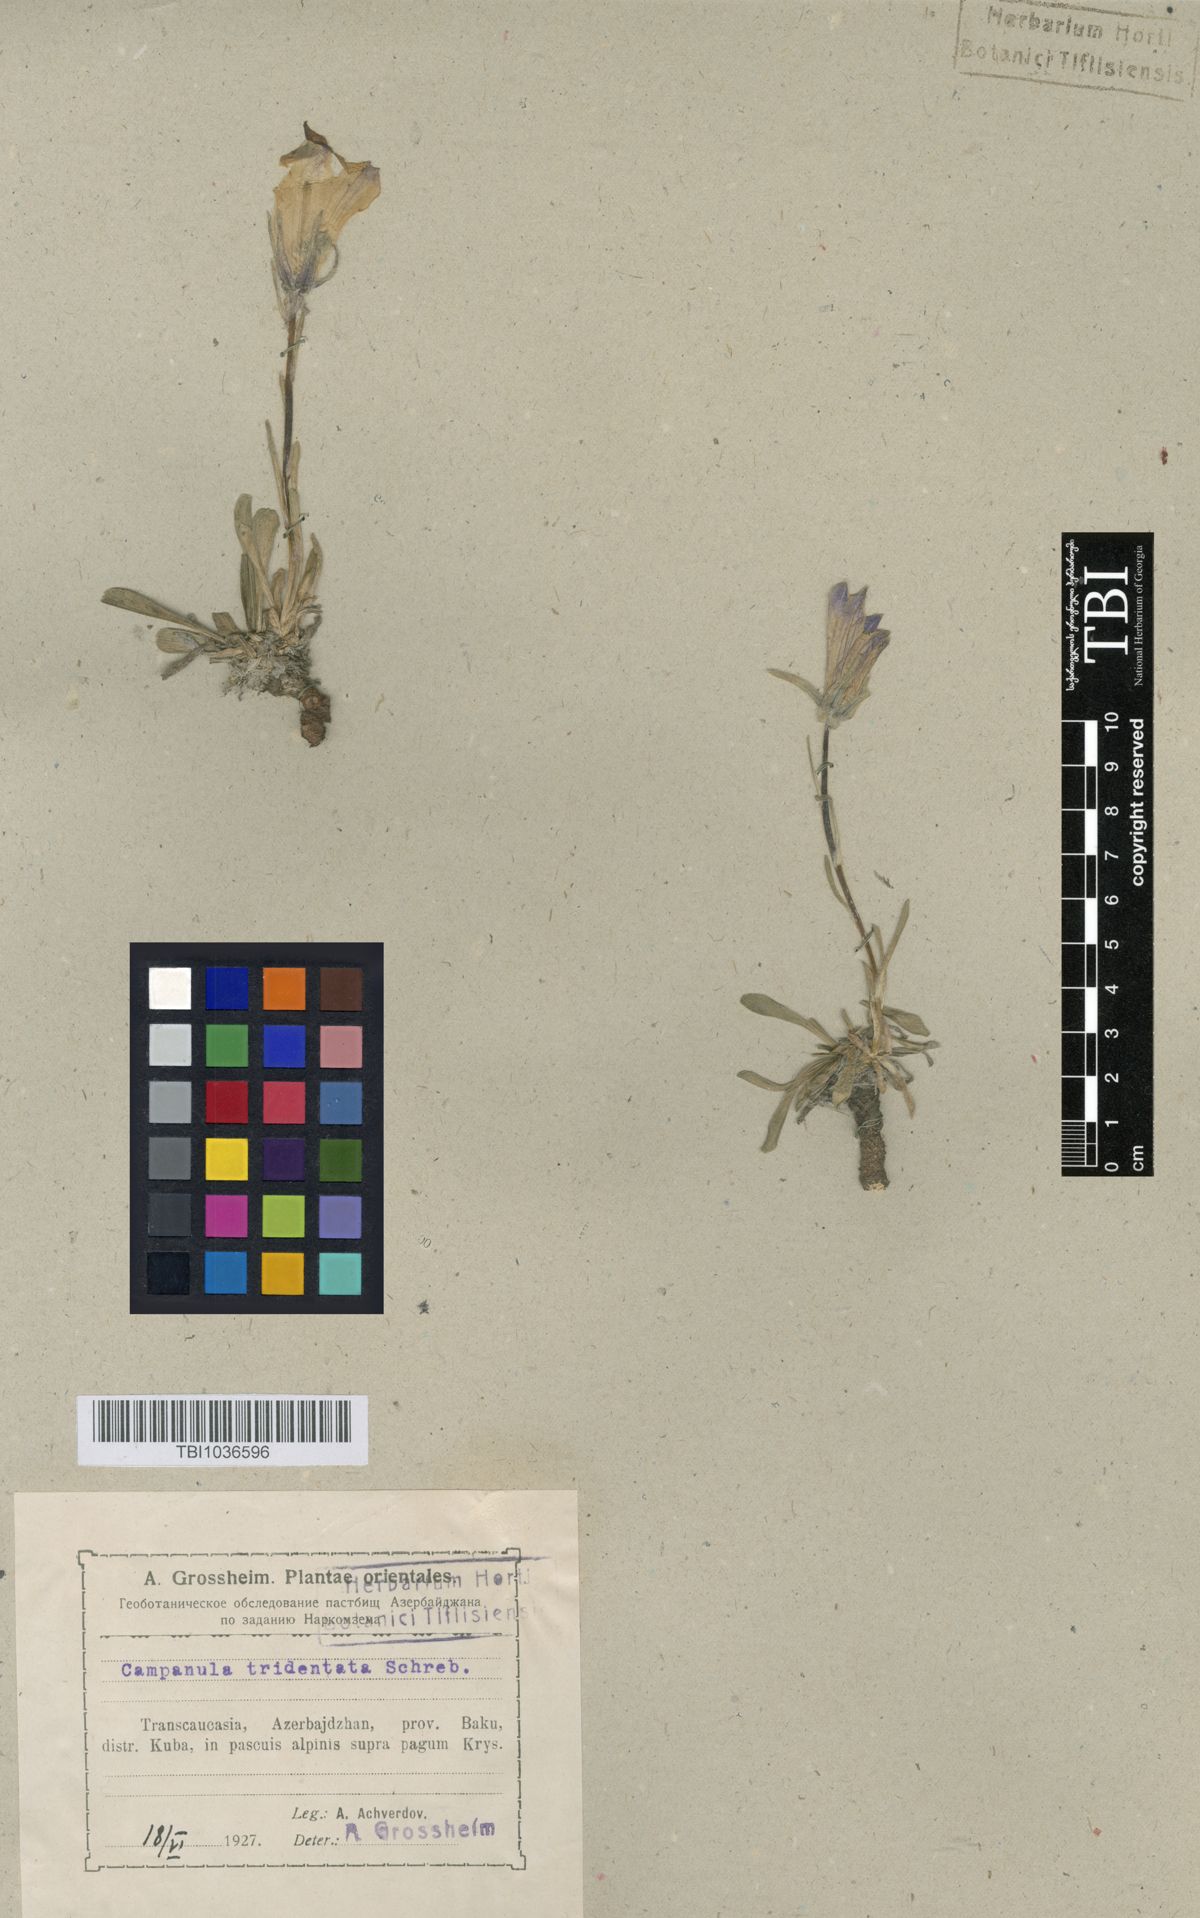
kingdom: Plantae
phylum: Tracheophyta
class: Magnoliopsida
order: Asterales
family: Campanulaceae
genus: Campanula
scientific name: Campanula tridentata
